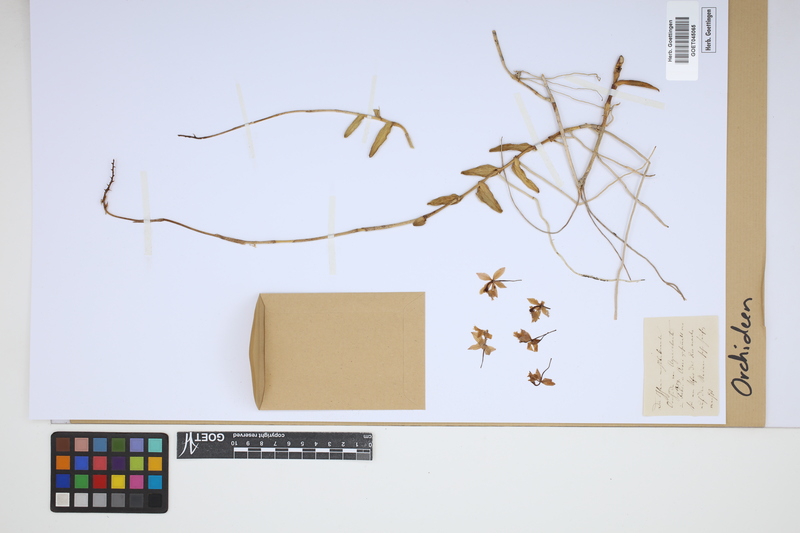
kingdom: Plantae
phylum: Tracheophyta
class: Liliopsida
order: Asparagales
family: Orchidaceae
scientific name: Orchidaceae
